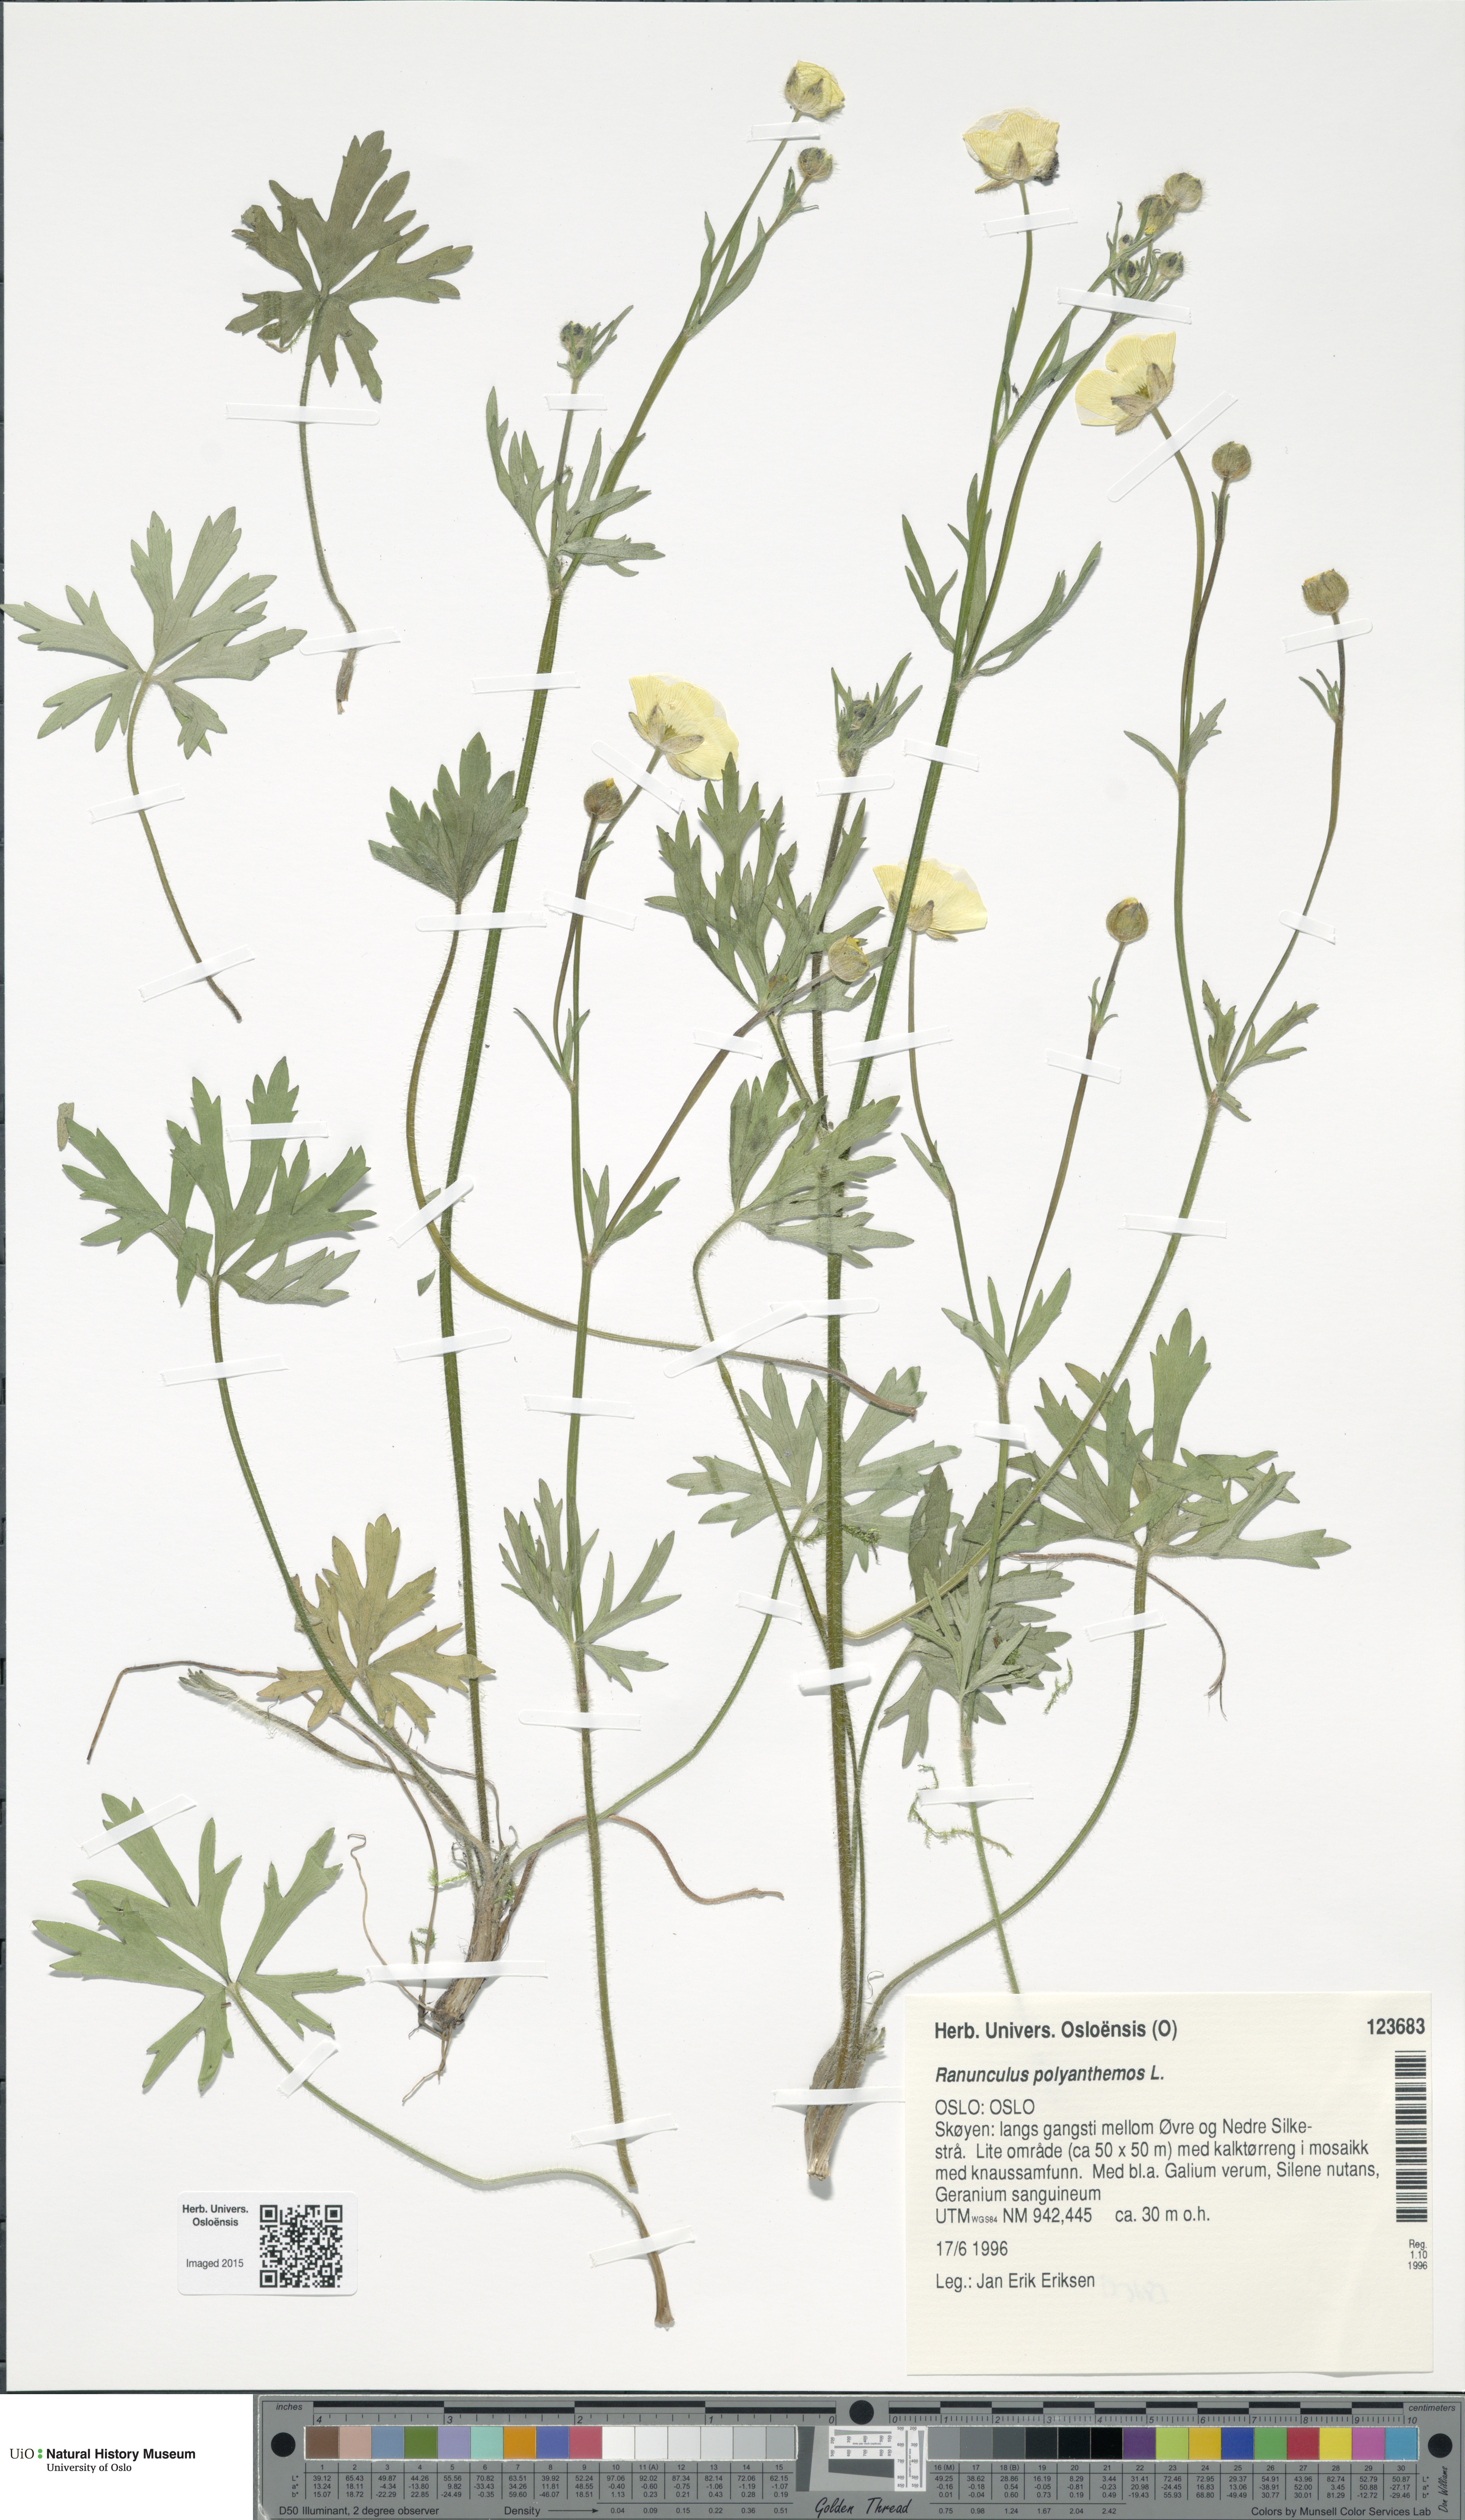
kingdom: Plantae
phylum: Tracheophyta
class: Magnoliopsida
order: Ranunculales
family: Ranunculaceae
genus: Ranunculus
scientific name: Ranunculus polyanthemos
